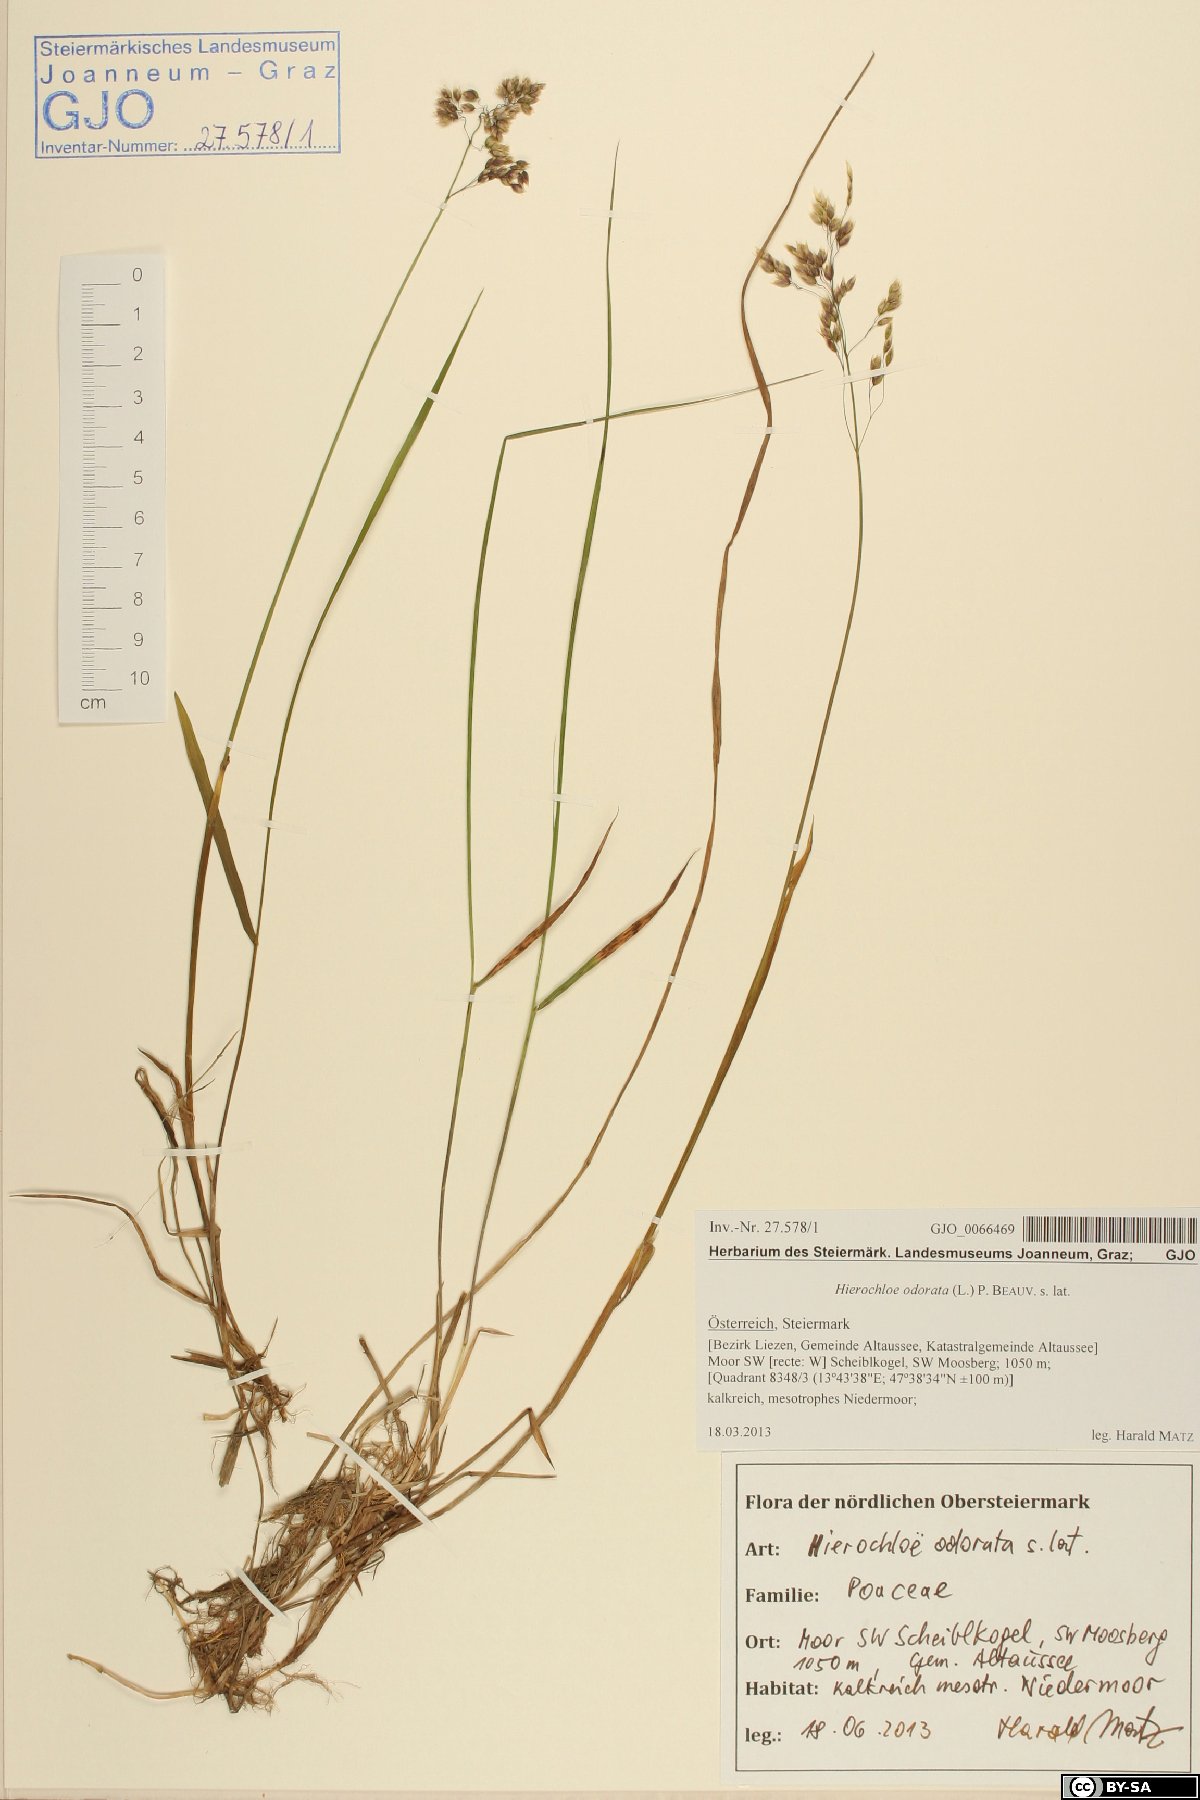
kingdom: Plantae
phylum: Tracheophyta
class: Liliopsida
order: Poales
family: Poaceae
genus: Anthoxanthum
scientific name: Anthoxanthum nitens
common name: Holy grass
